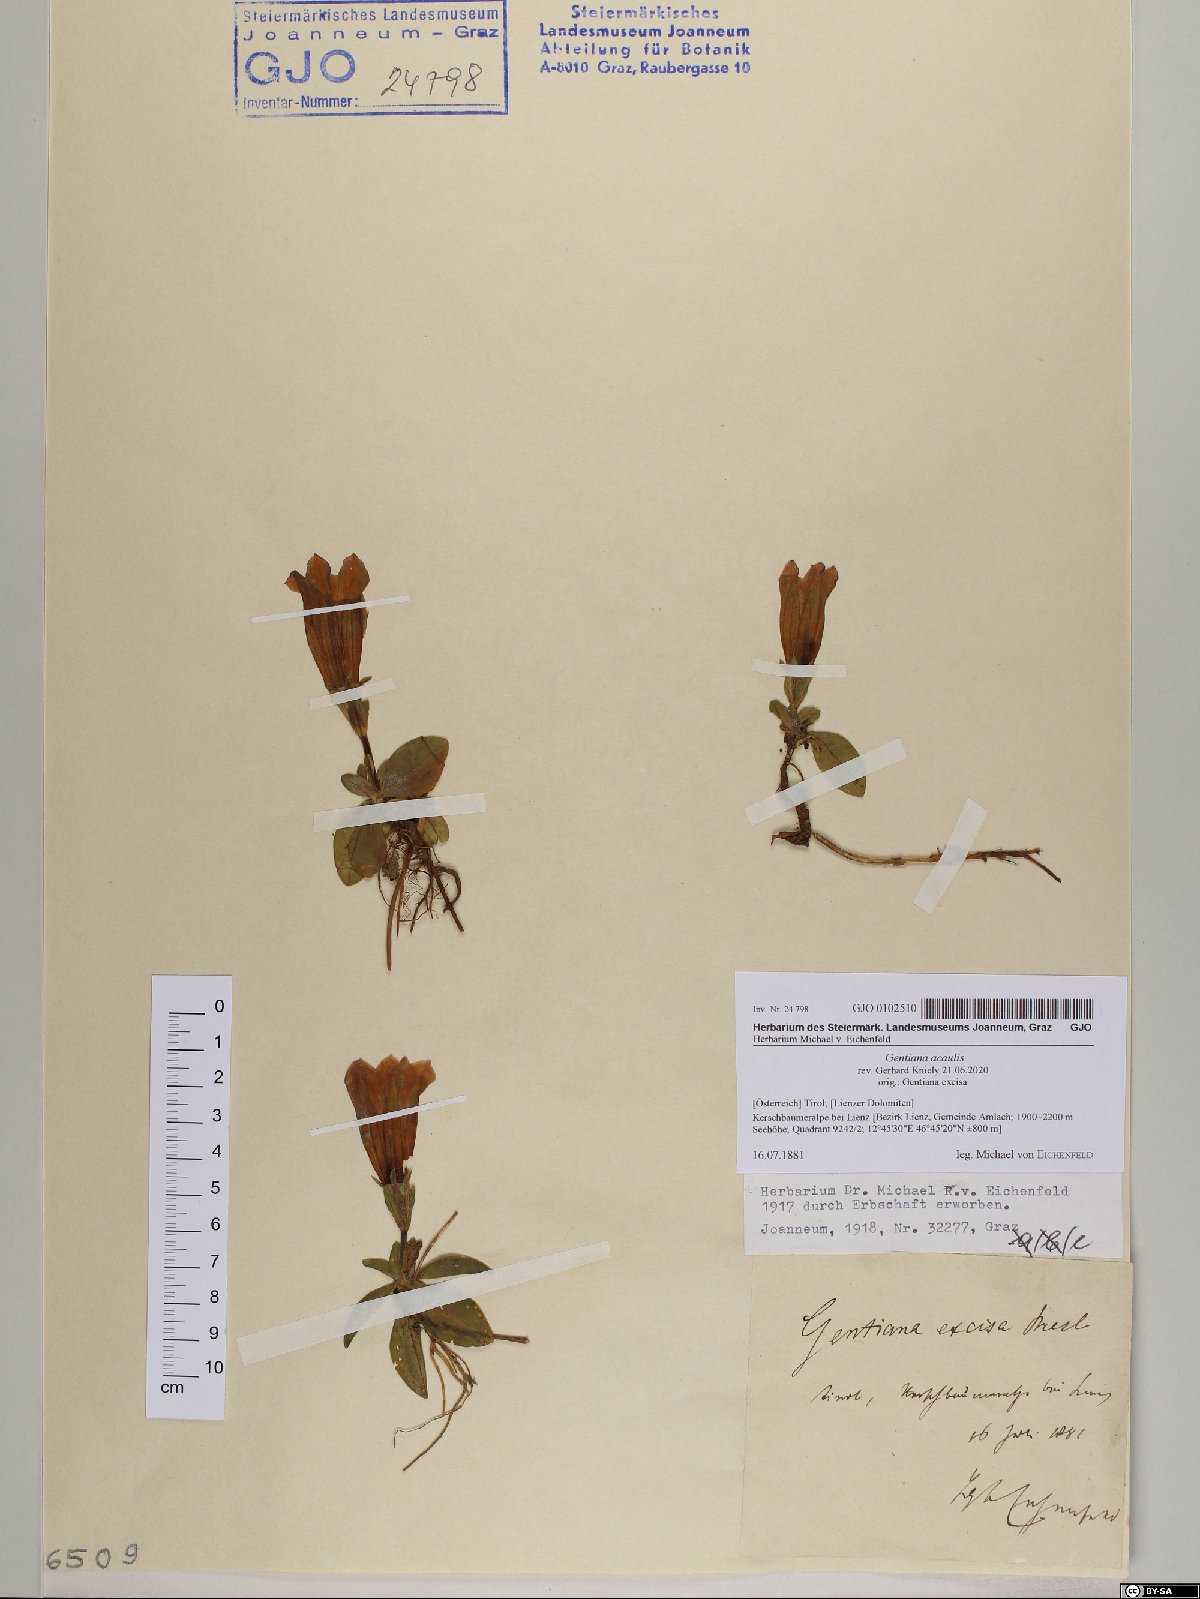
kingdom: Plantae
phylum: Tracheophyta
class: Magnoliopsida
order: Gentianales
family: Gentianaceae
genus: Gentiana
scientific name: Gentiana acaulis
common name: Trumpet gentian
